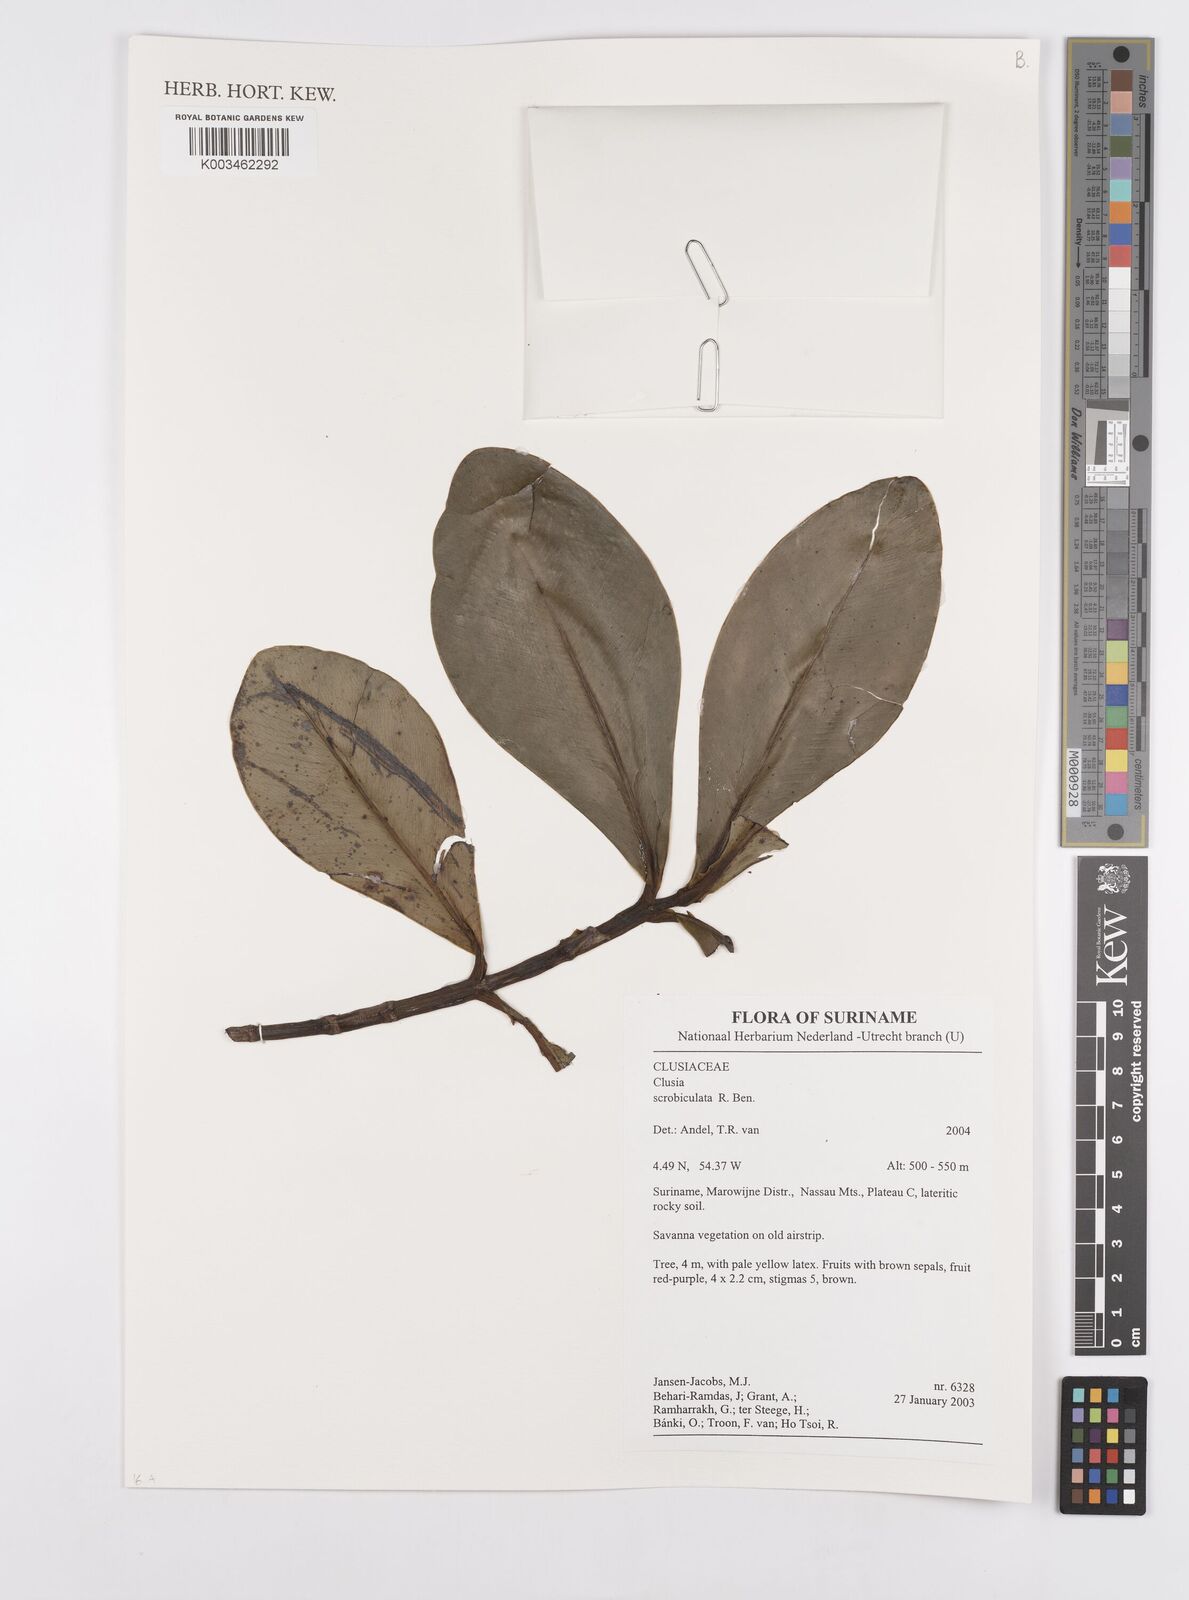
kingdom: Plantae
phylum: Tracheophyta
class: Magnoliopsida
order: Malpighiales
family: Clusiaceae
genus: Clusia
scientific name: Clusia scrobiculata
